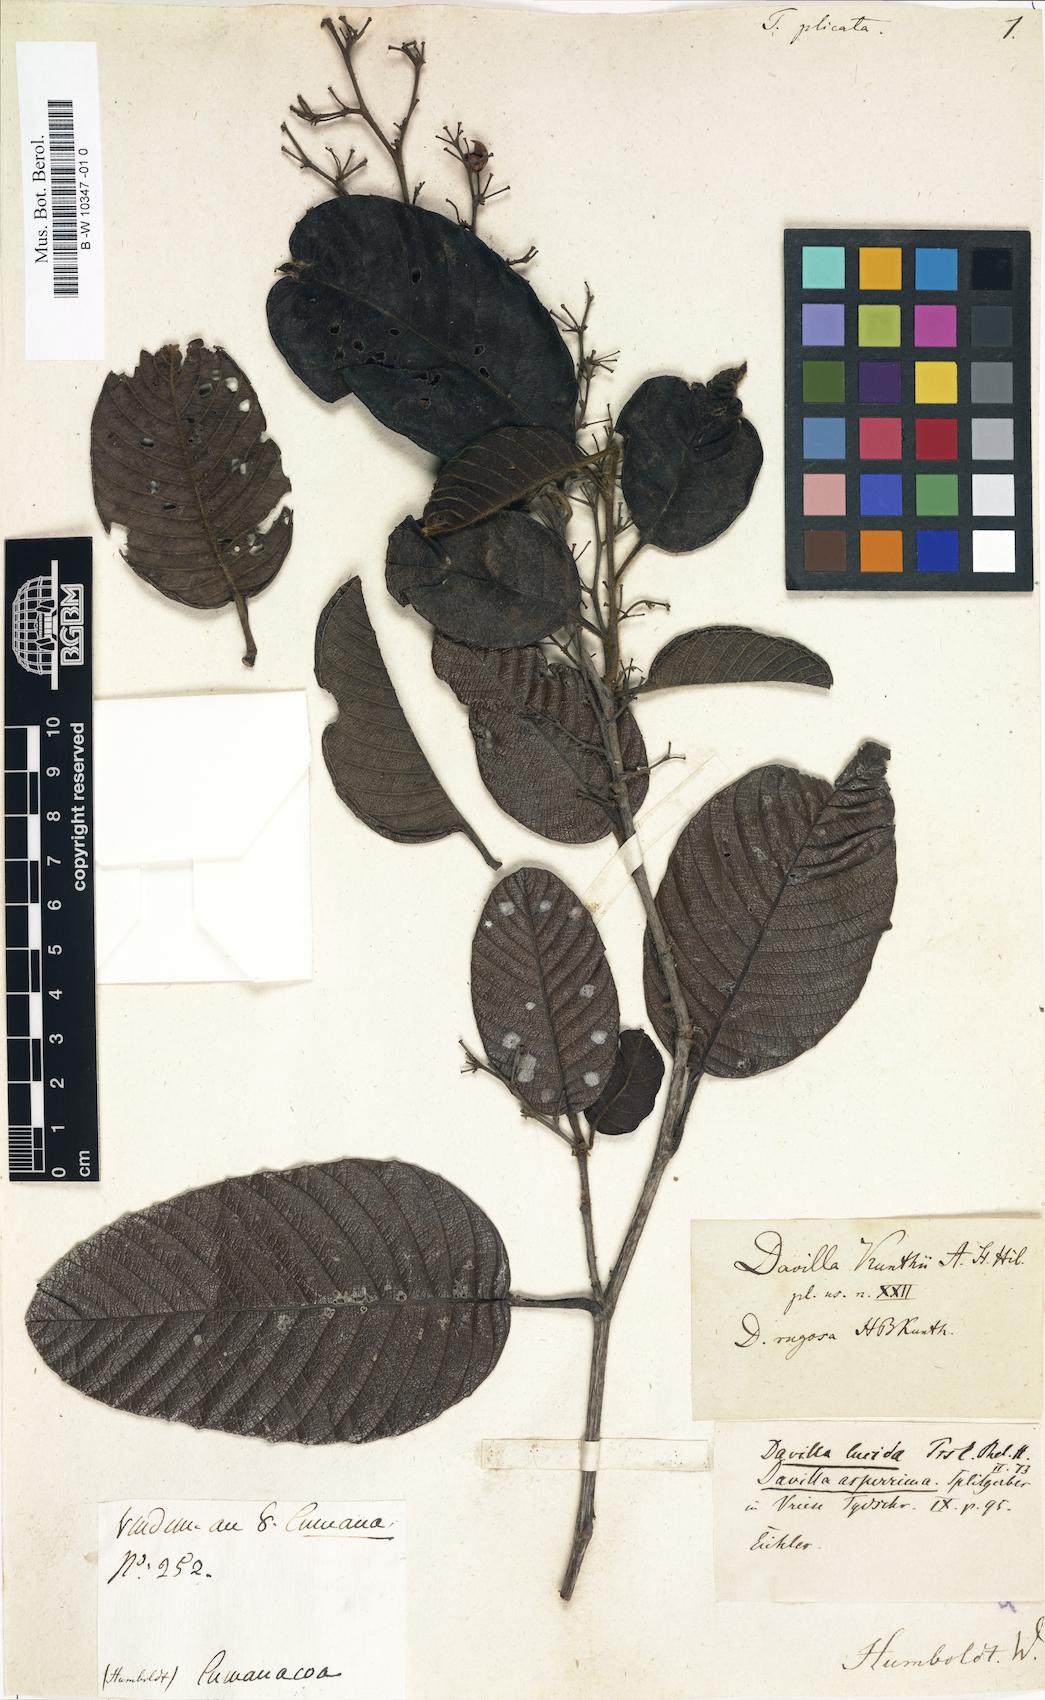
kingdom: Plantae
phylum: Tracheophyta
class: Magnoliopsida
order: Dilleniales
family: Dilleniaceae
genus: Davilla
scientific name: Davilla kunthii
